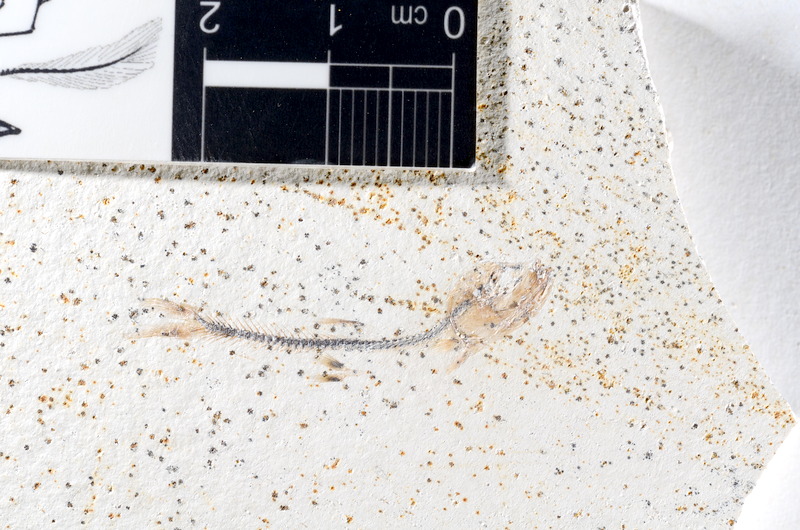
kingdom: Animalia
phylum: Chordata
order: Salmoniformes
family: Orthogonikleithridae
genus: Orthogonikleithrus
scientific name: Orthogonikleithrus hoelli
